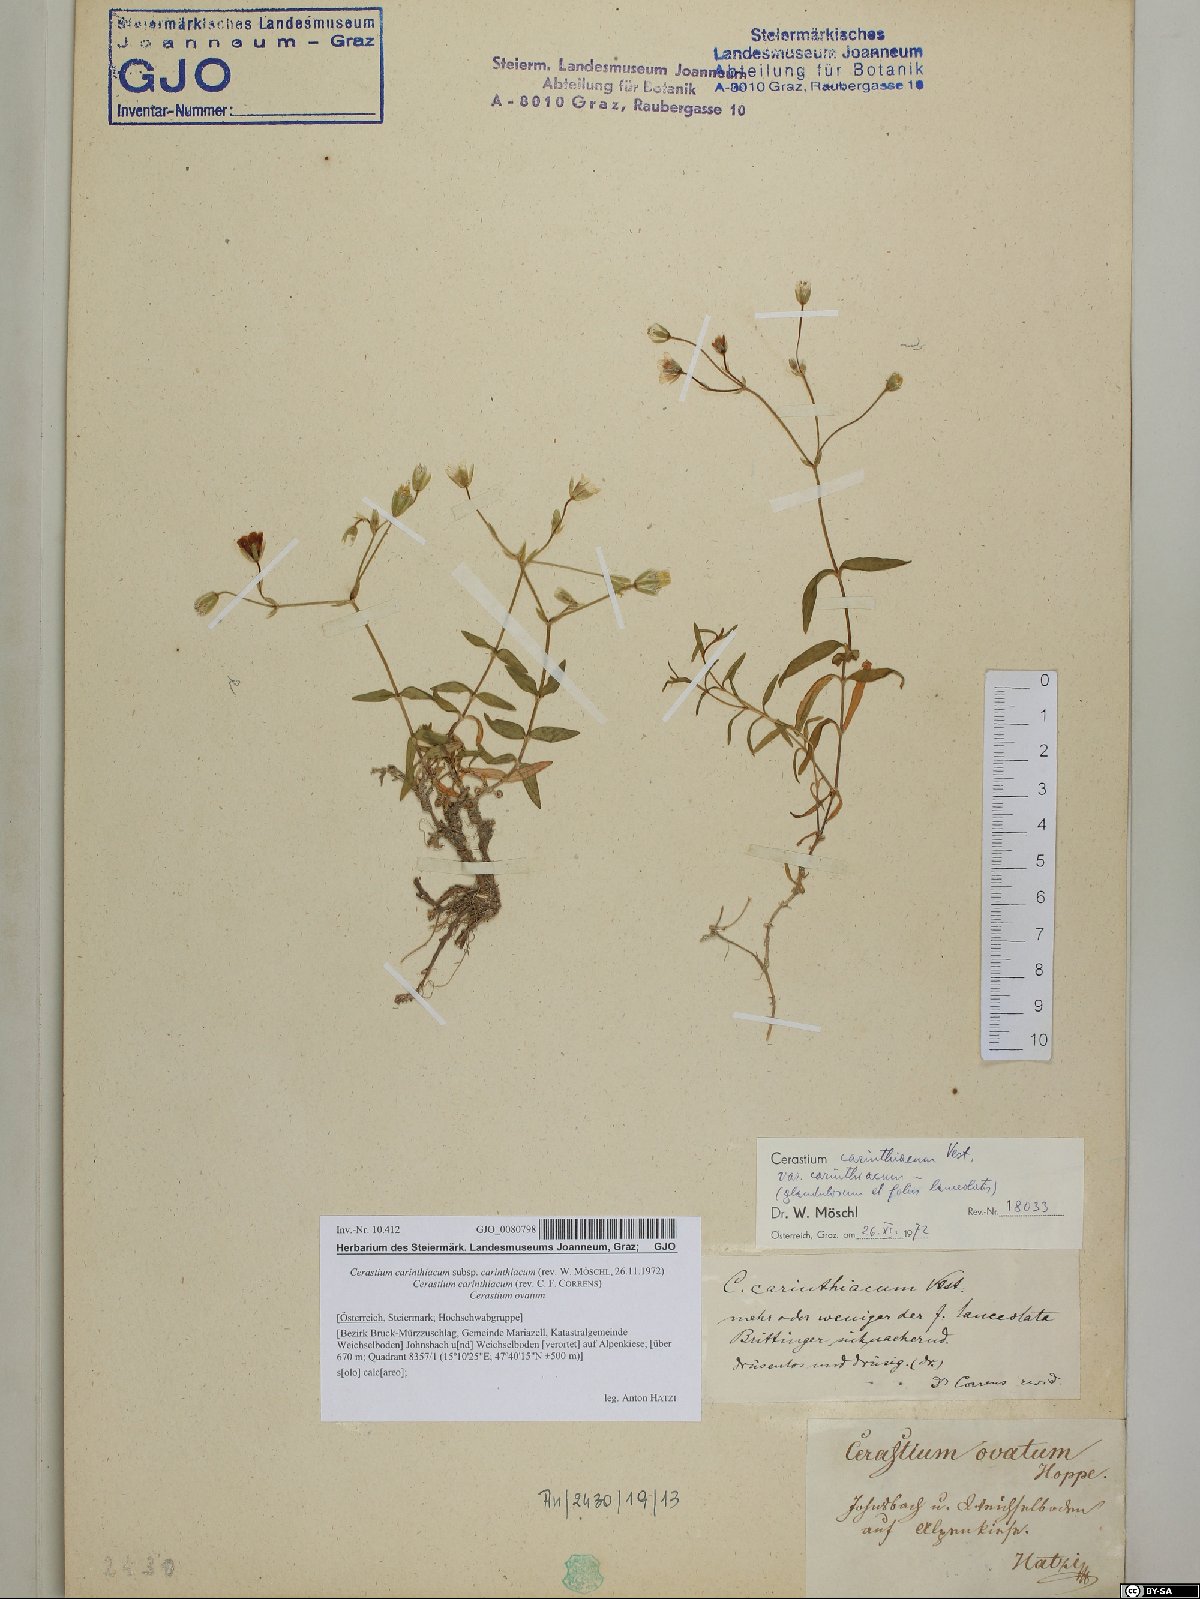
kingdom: Plantae
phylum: Tracheophyta
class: Magnoliopsida
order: Caryophyllales
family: Caryophyllaceae
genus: Cerastium
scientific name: Cerastium carinthiacum
